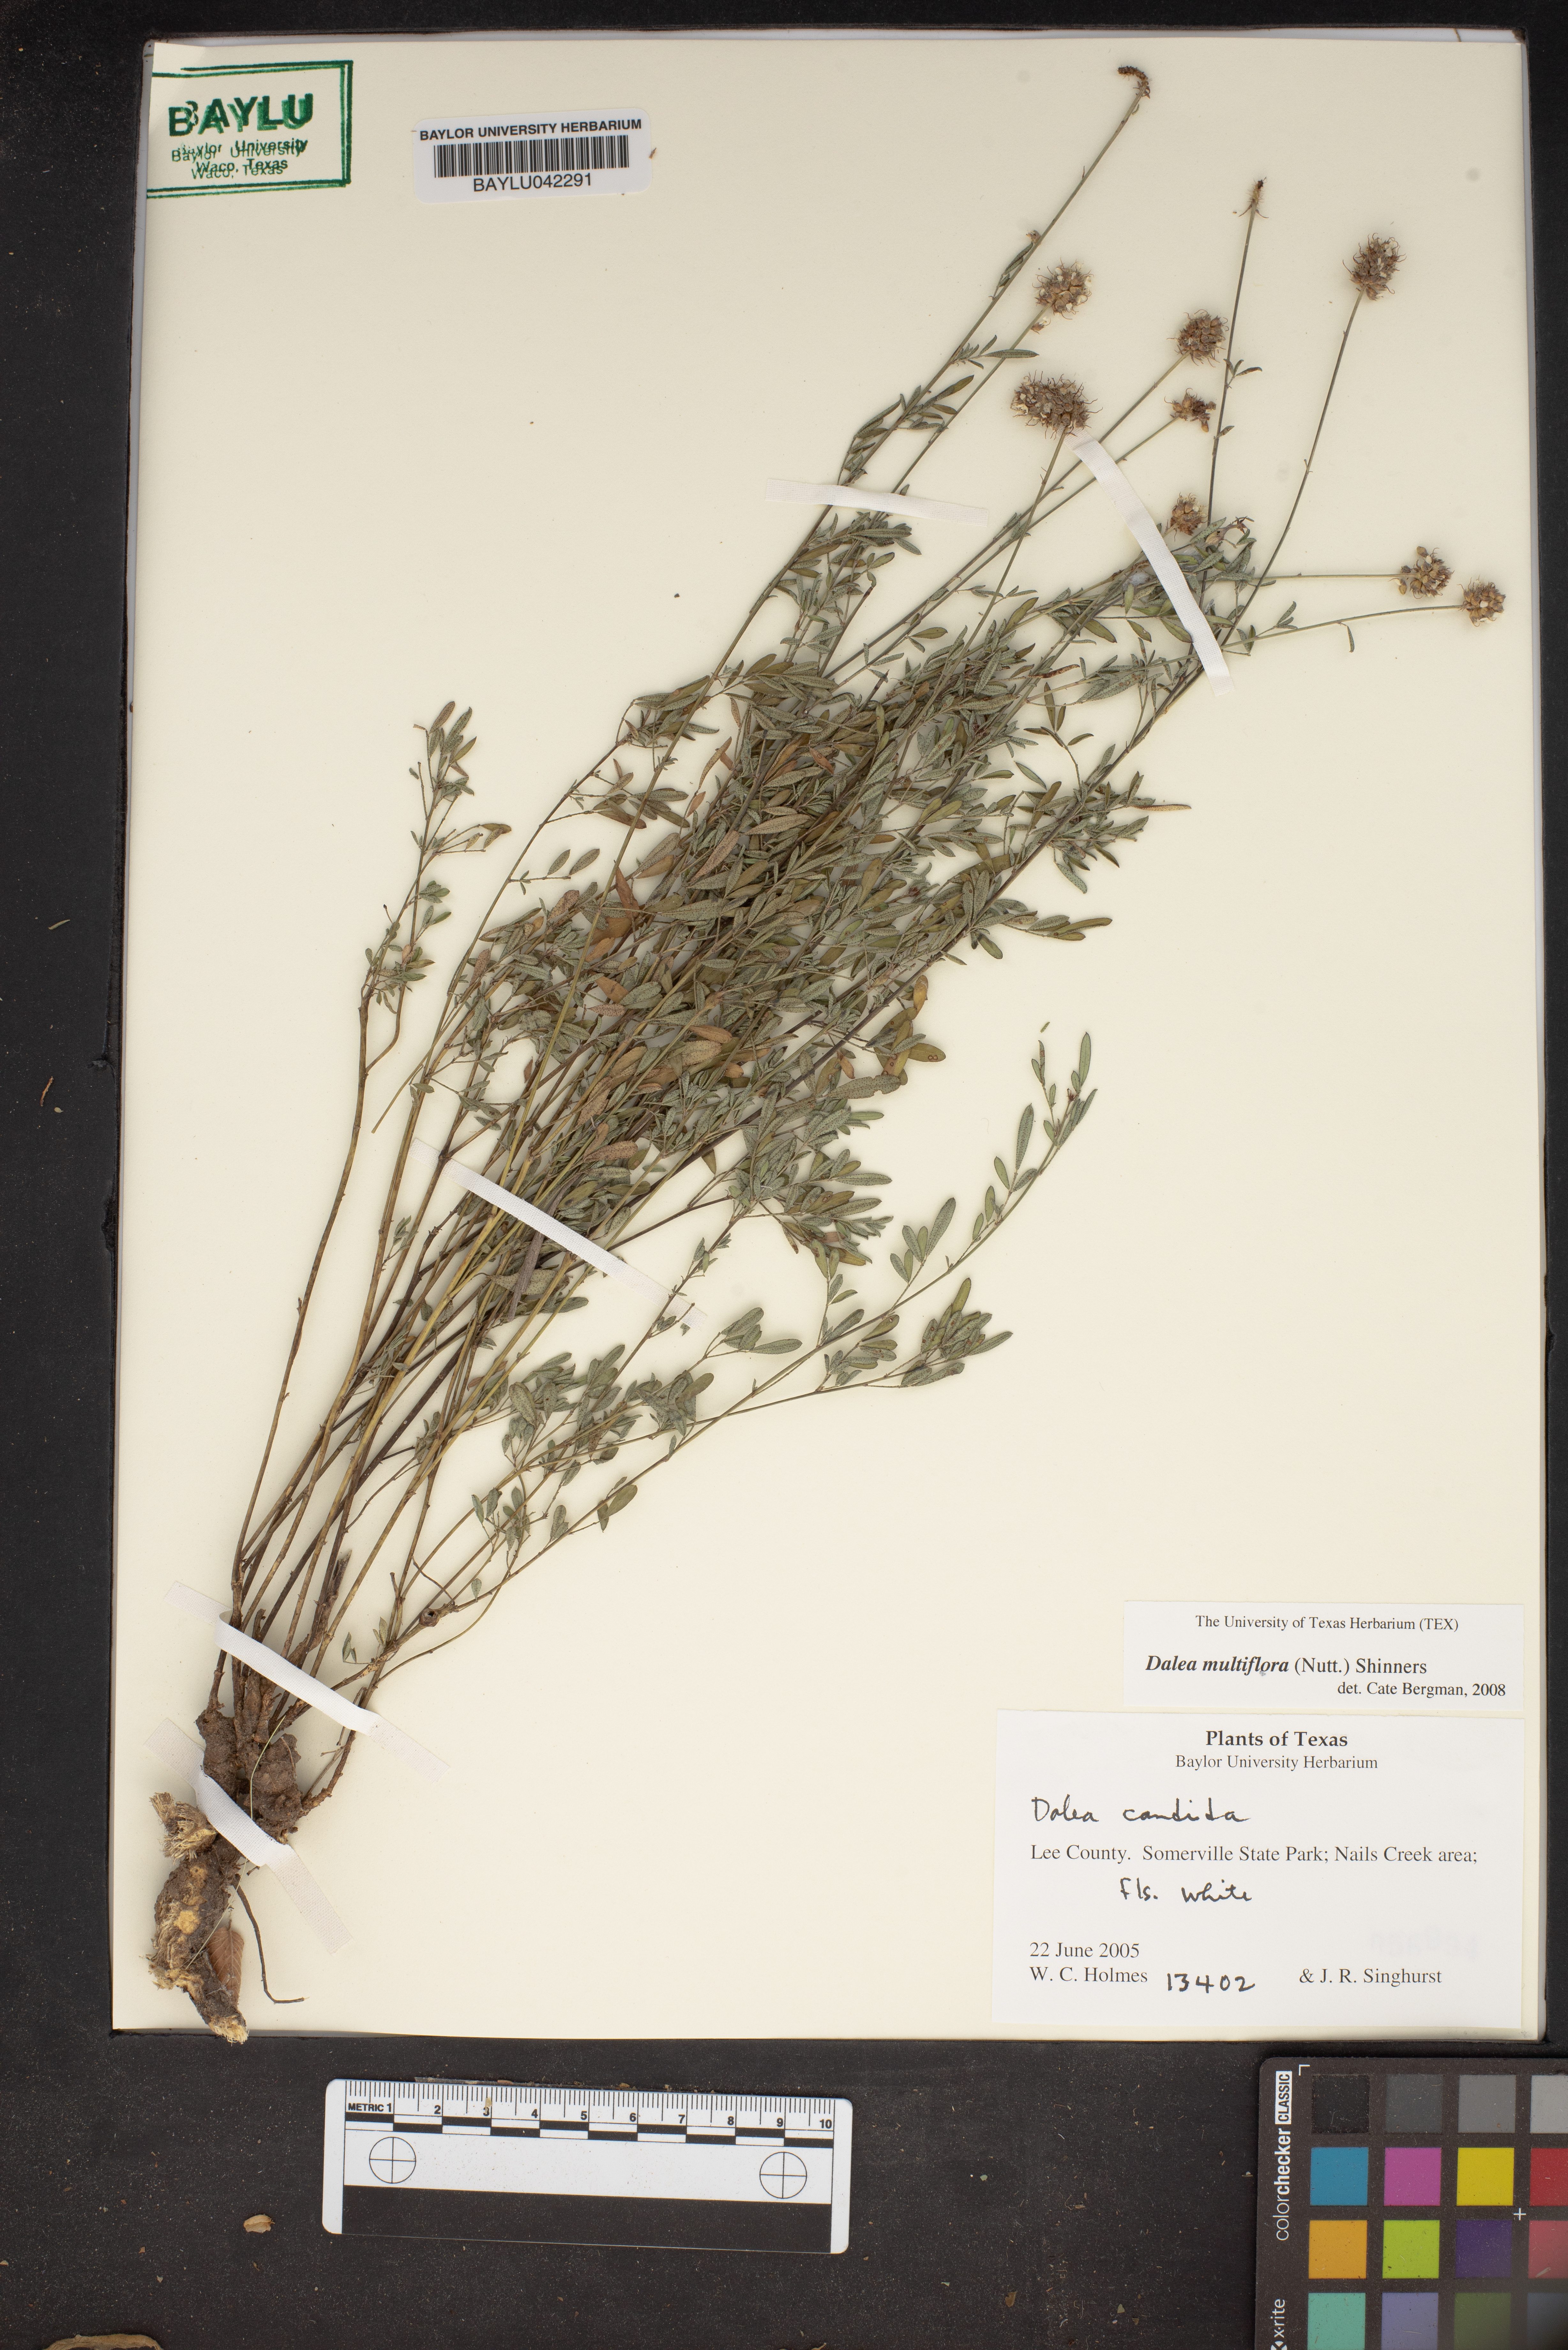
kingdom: Plantae
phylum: Tracheophyta
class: Magnoliopsida
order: Fabales
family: Fabaceae
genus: Dalea
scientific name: Dalea multiflora
